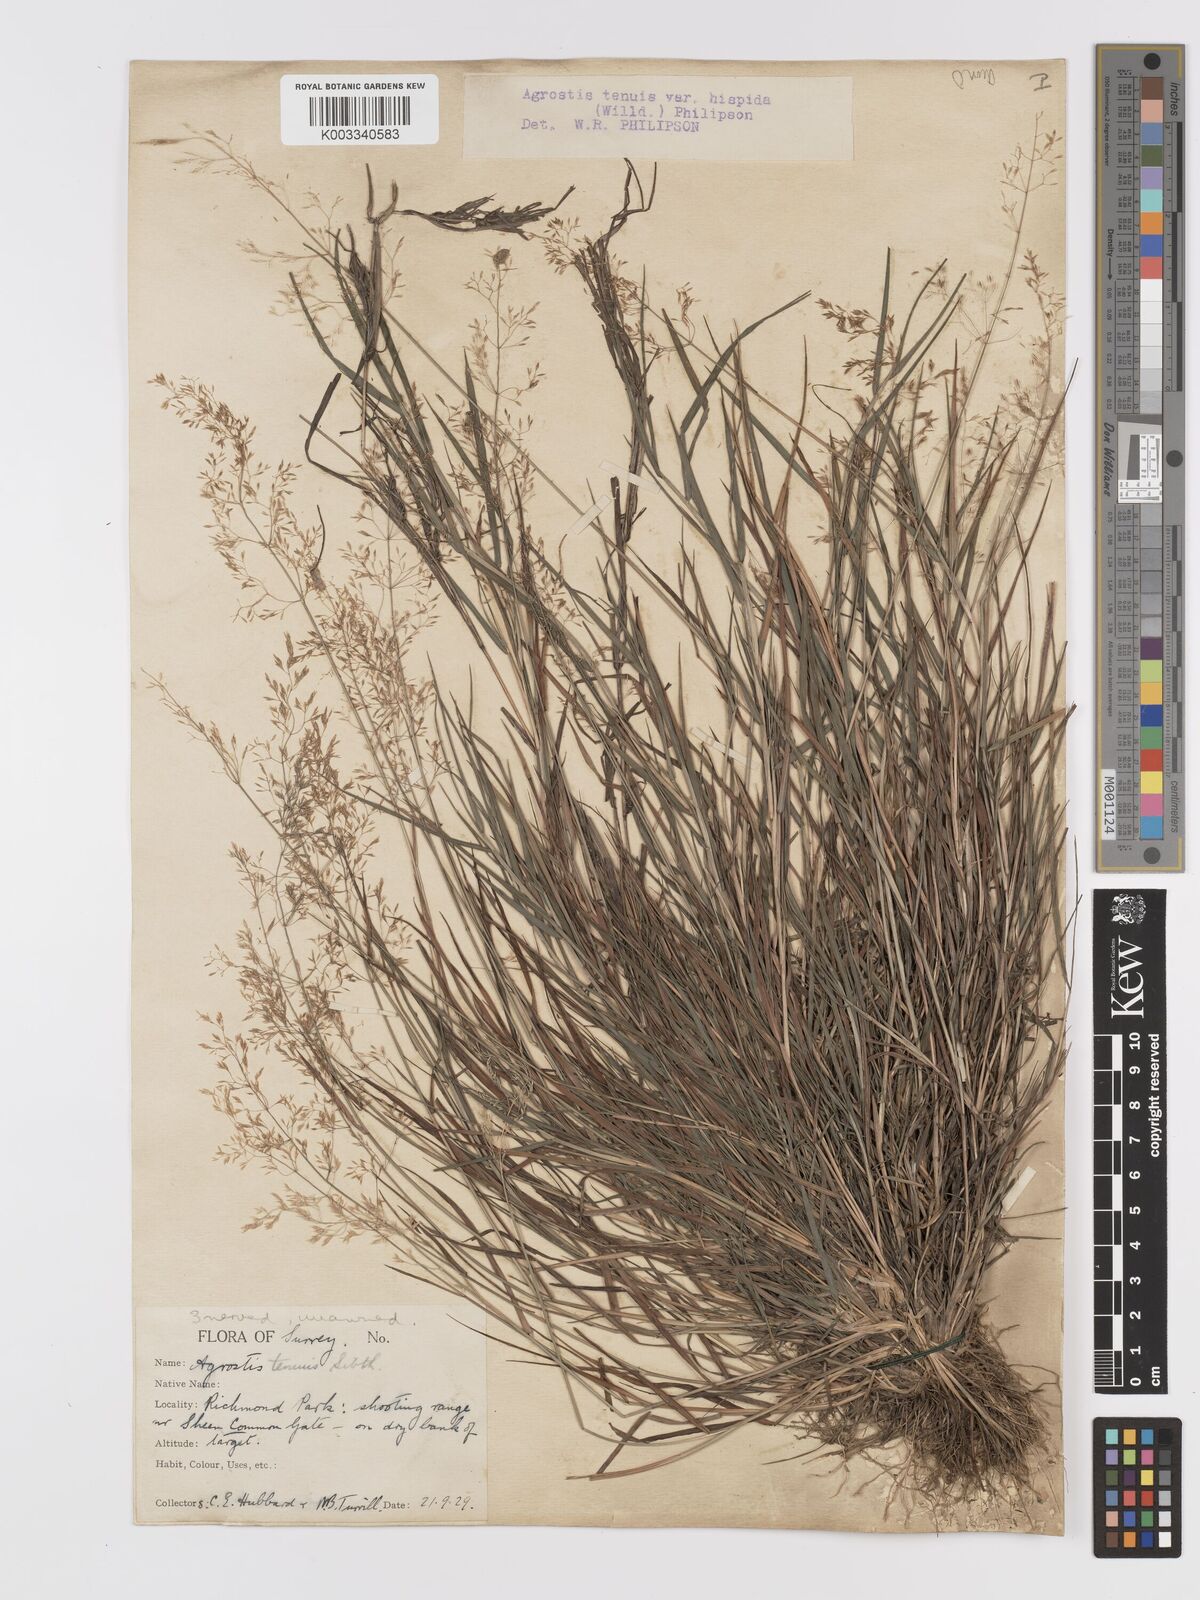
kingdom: Plantae
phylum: Tracheophyta
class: Liliopsida
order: Poales
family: Poaceae
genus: Agrostis
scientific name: Agrostis capillaris
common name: Colonial bentgrass
